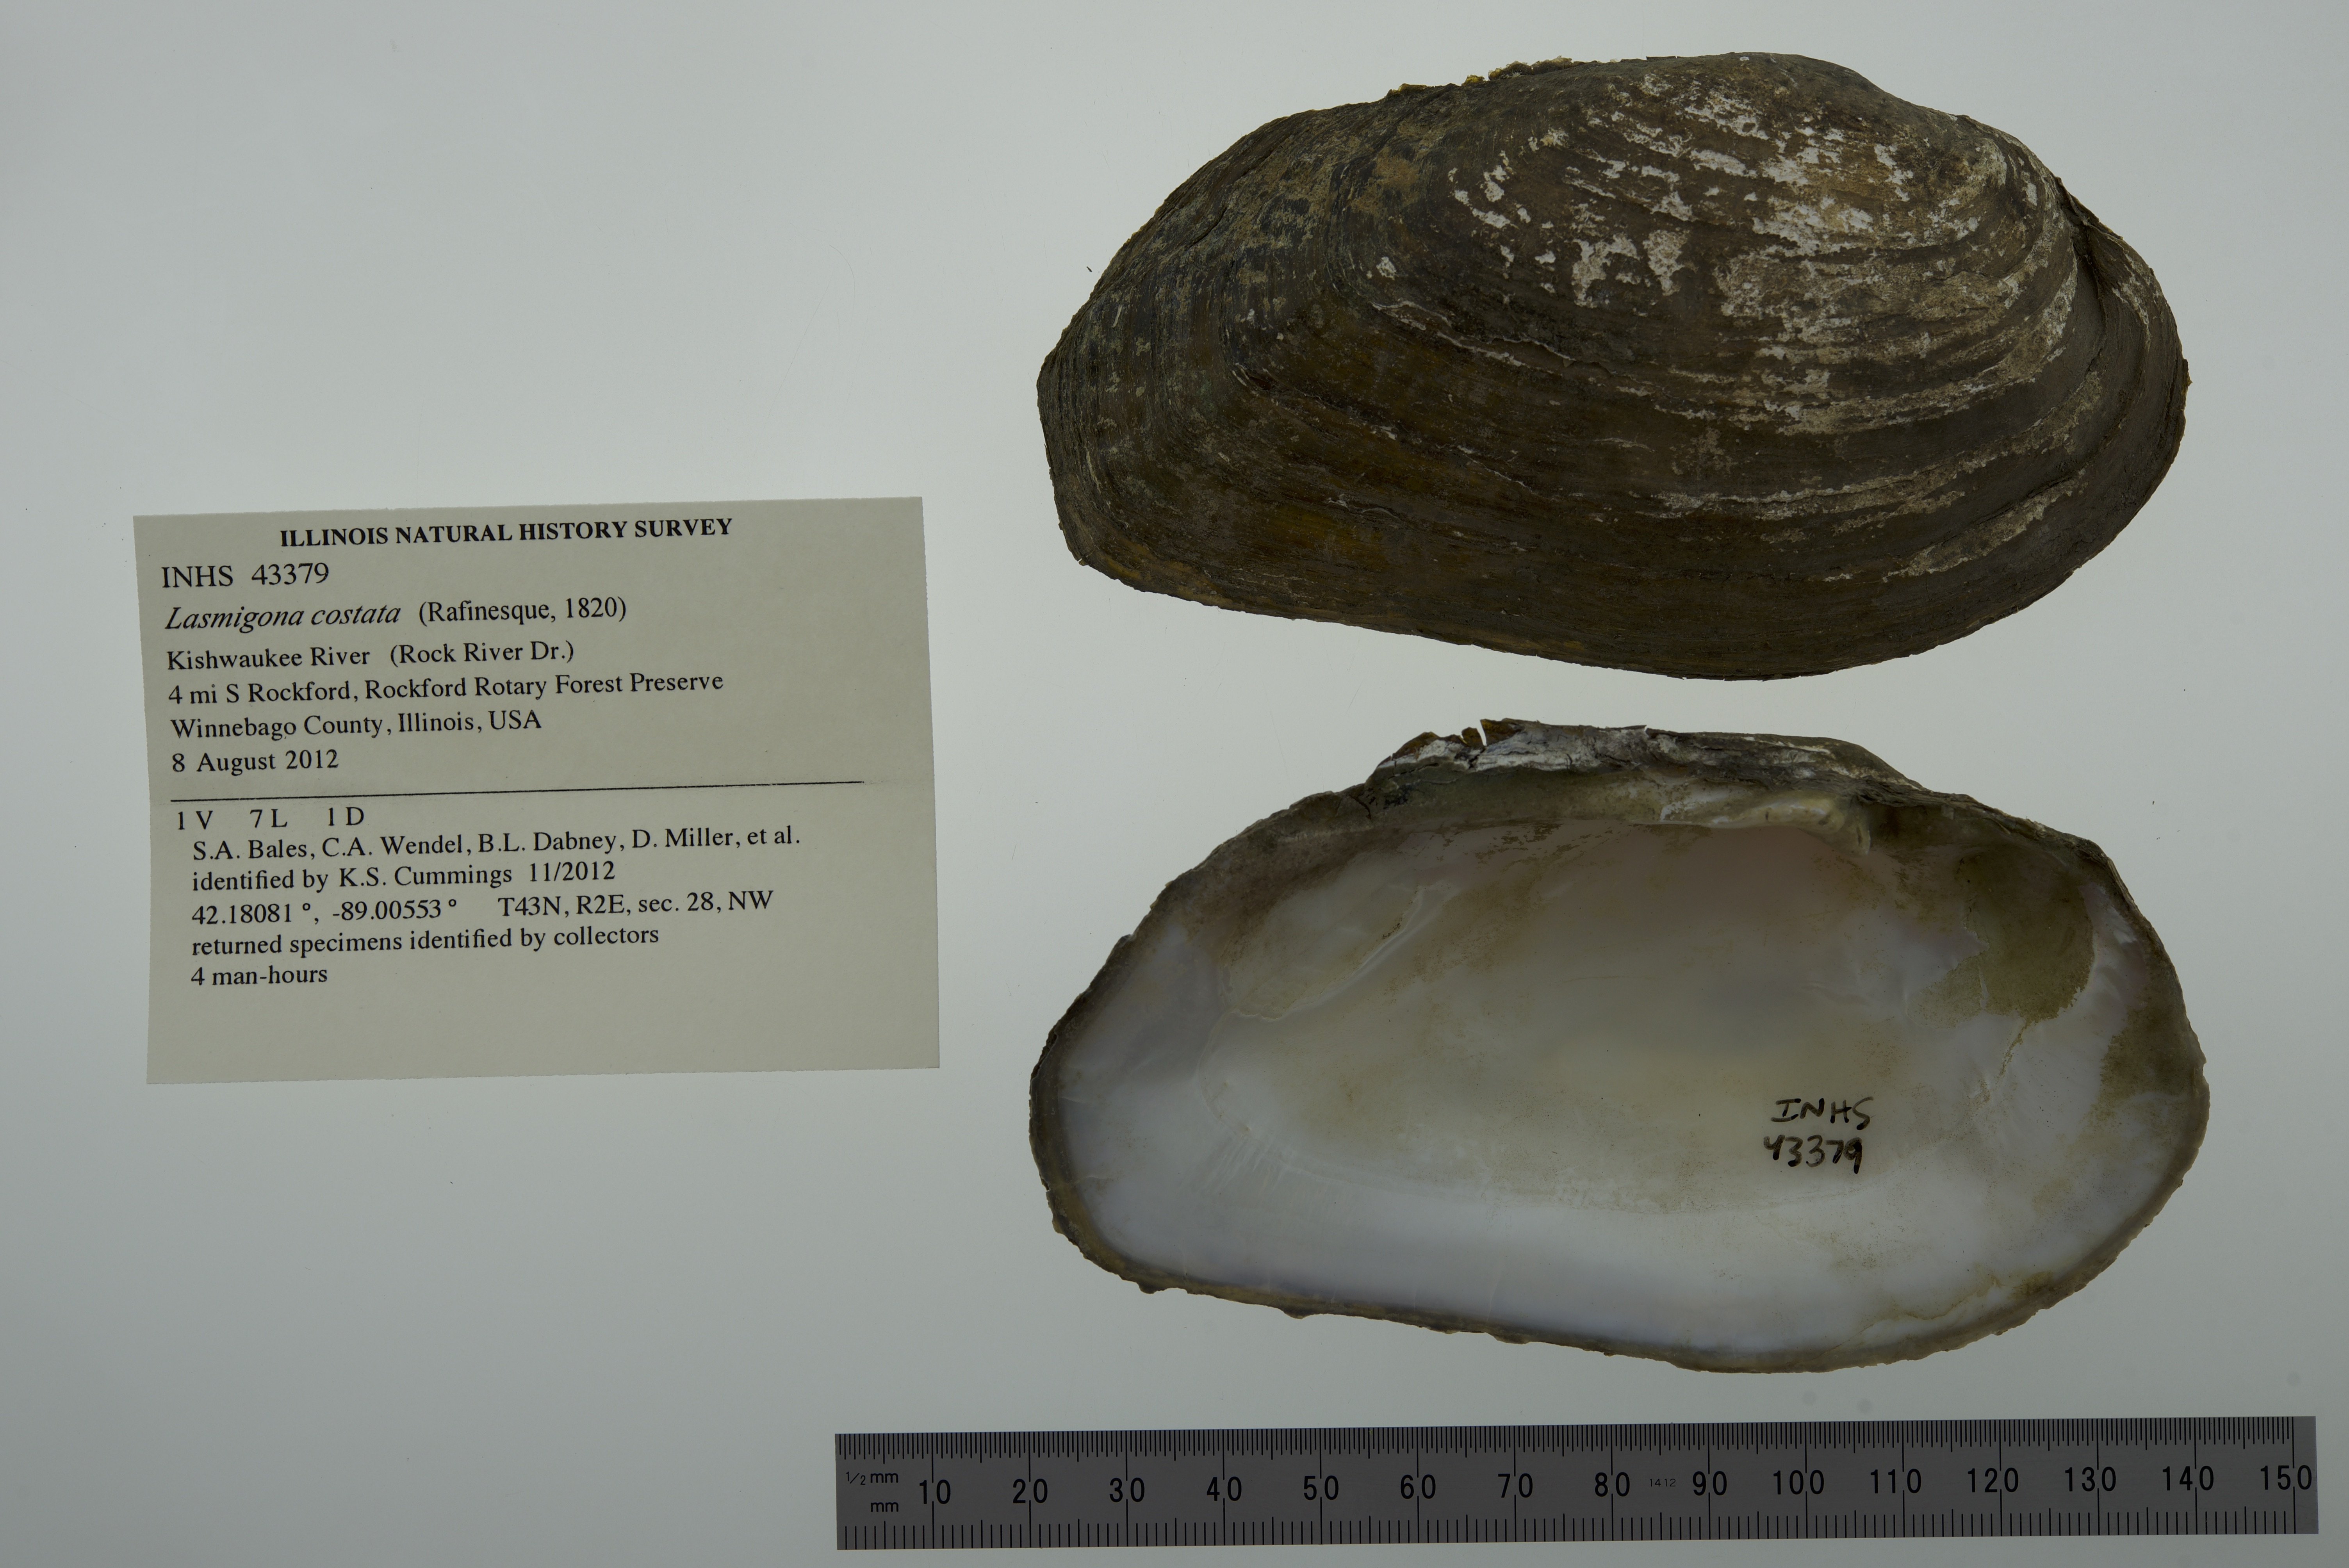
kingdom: Animalia
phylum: Mollusca
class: Bivalvia
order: Unionida
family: Unionidae
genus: Lasmigona
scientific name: Lasmigona costata
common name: Flutedshell
